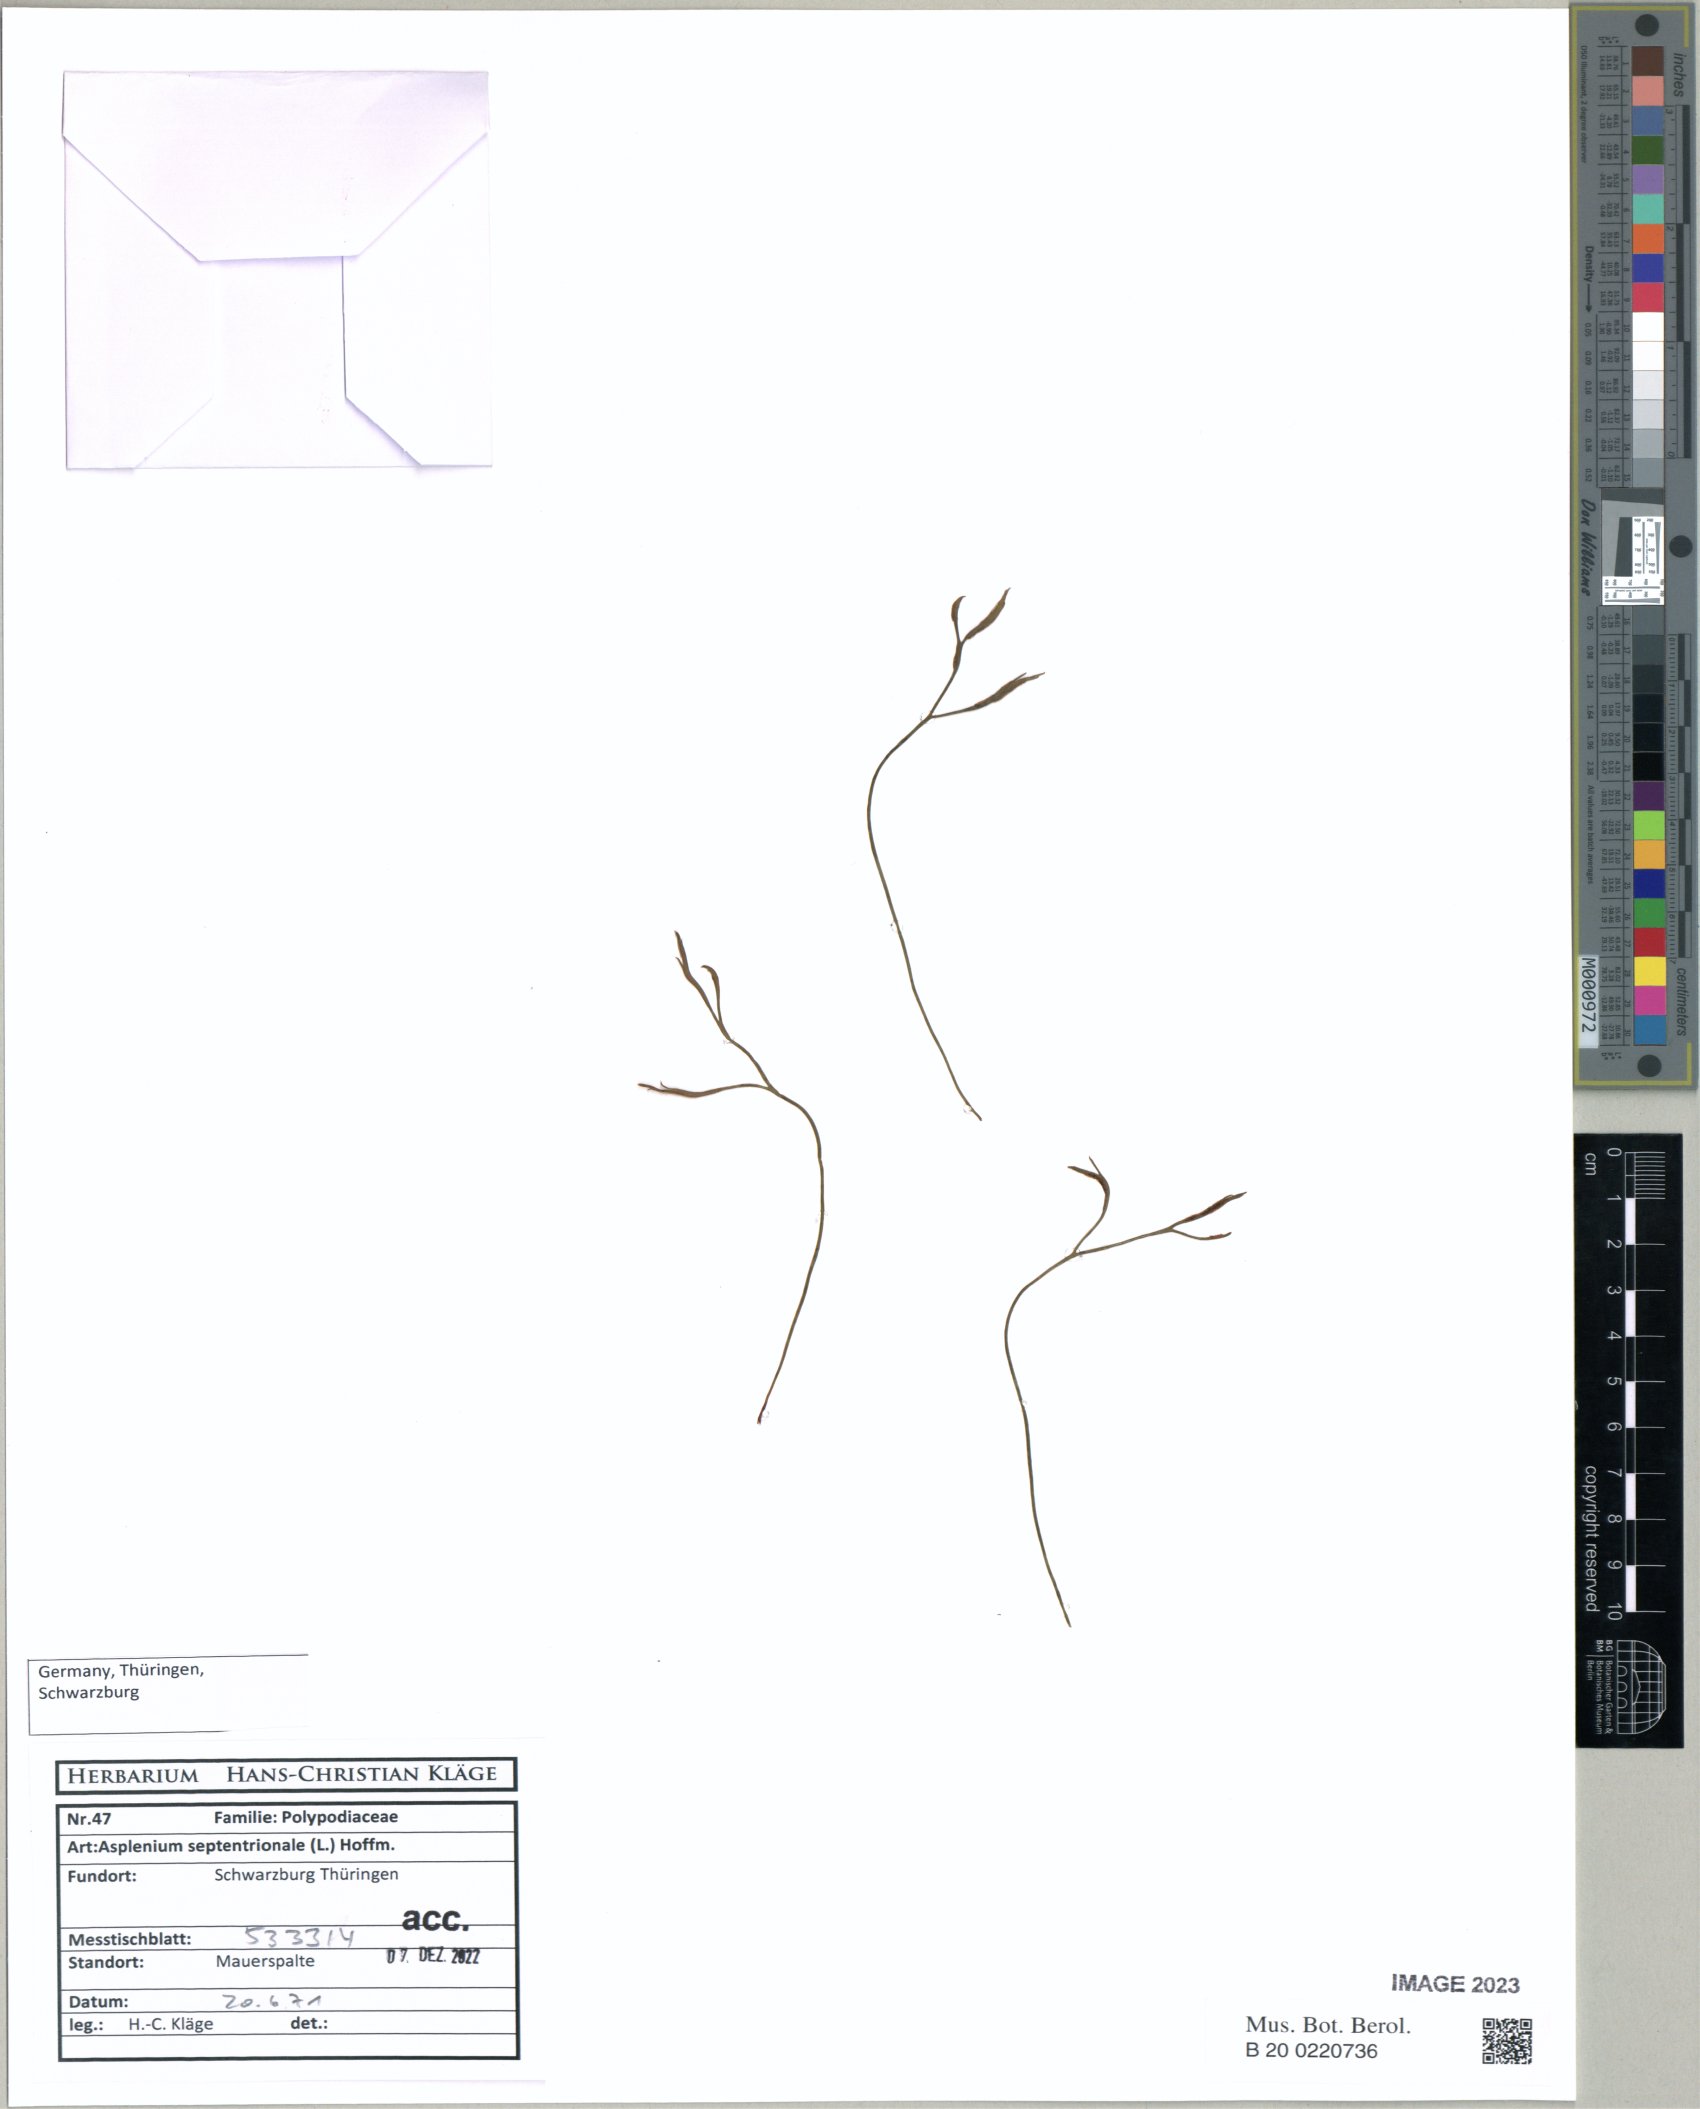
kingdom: Plantae
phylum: Tracheophyta
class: Polypodiopsida
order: Polypodiales
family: Aspleniaceae
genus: Asplenium
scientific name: Asplenium septentrionale
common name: Forked spleenwort
